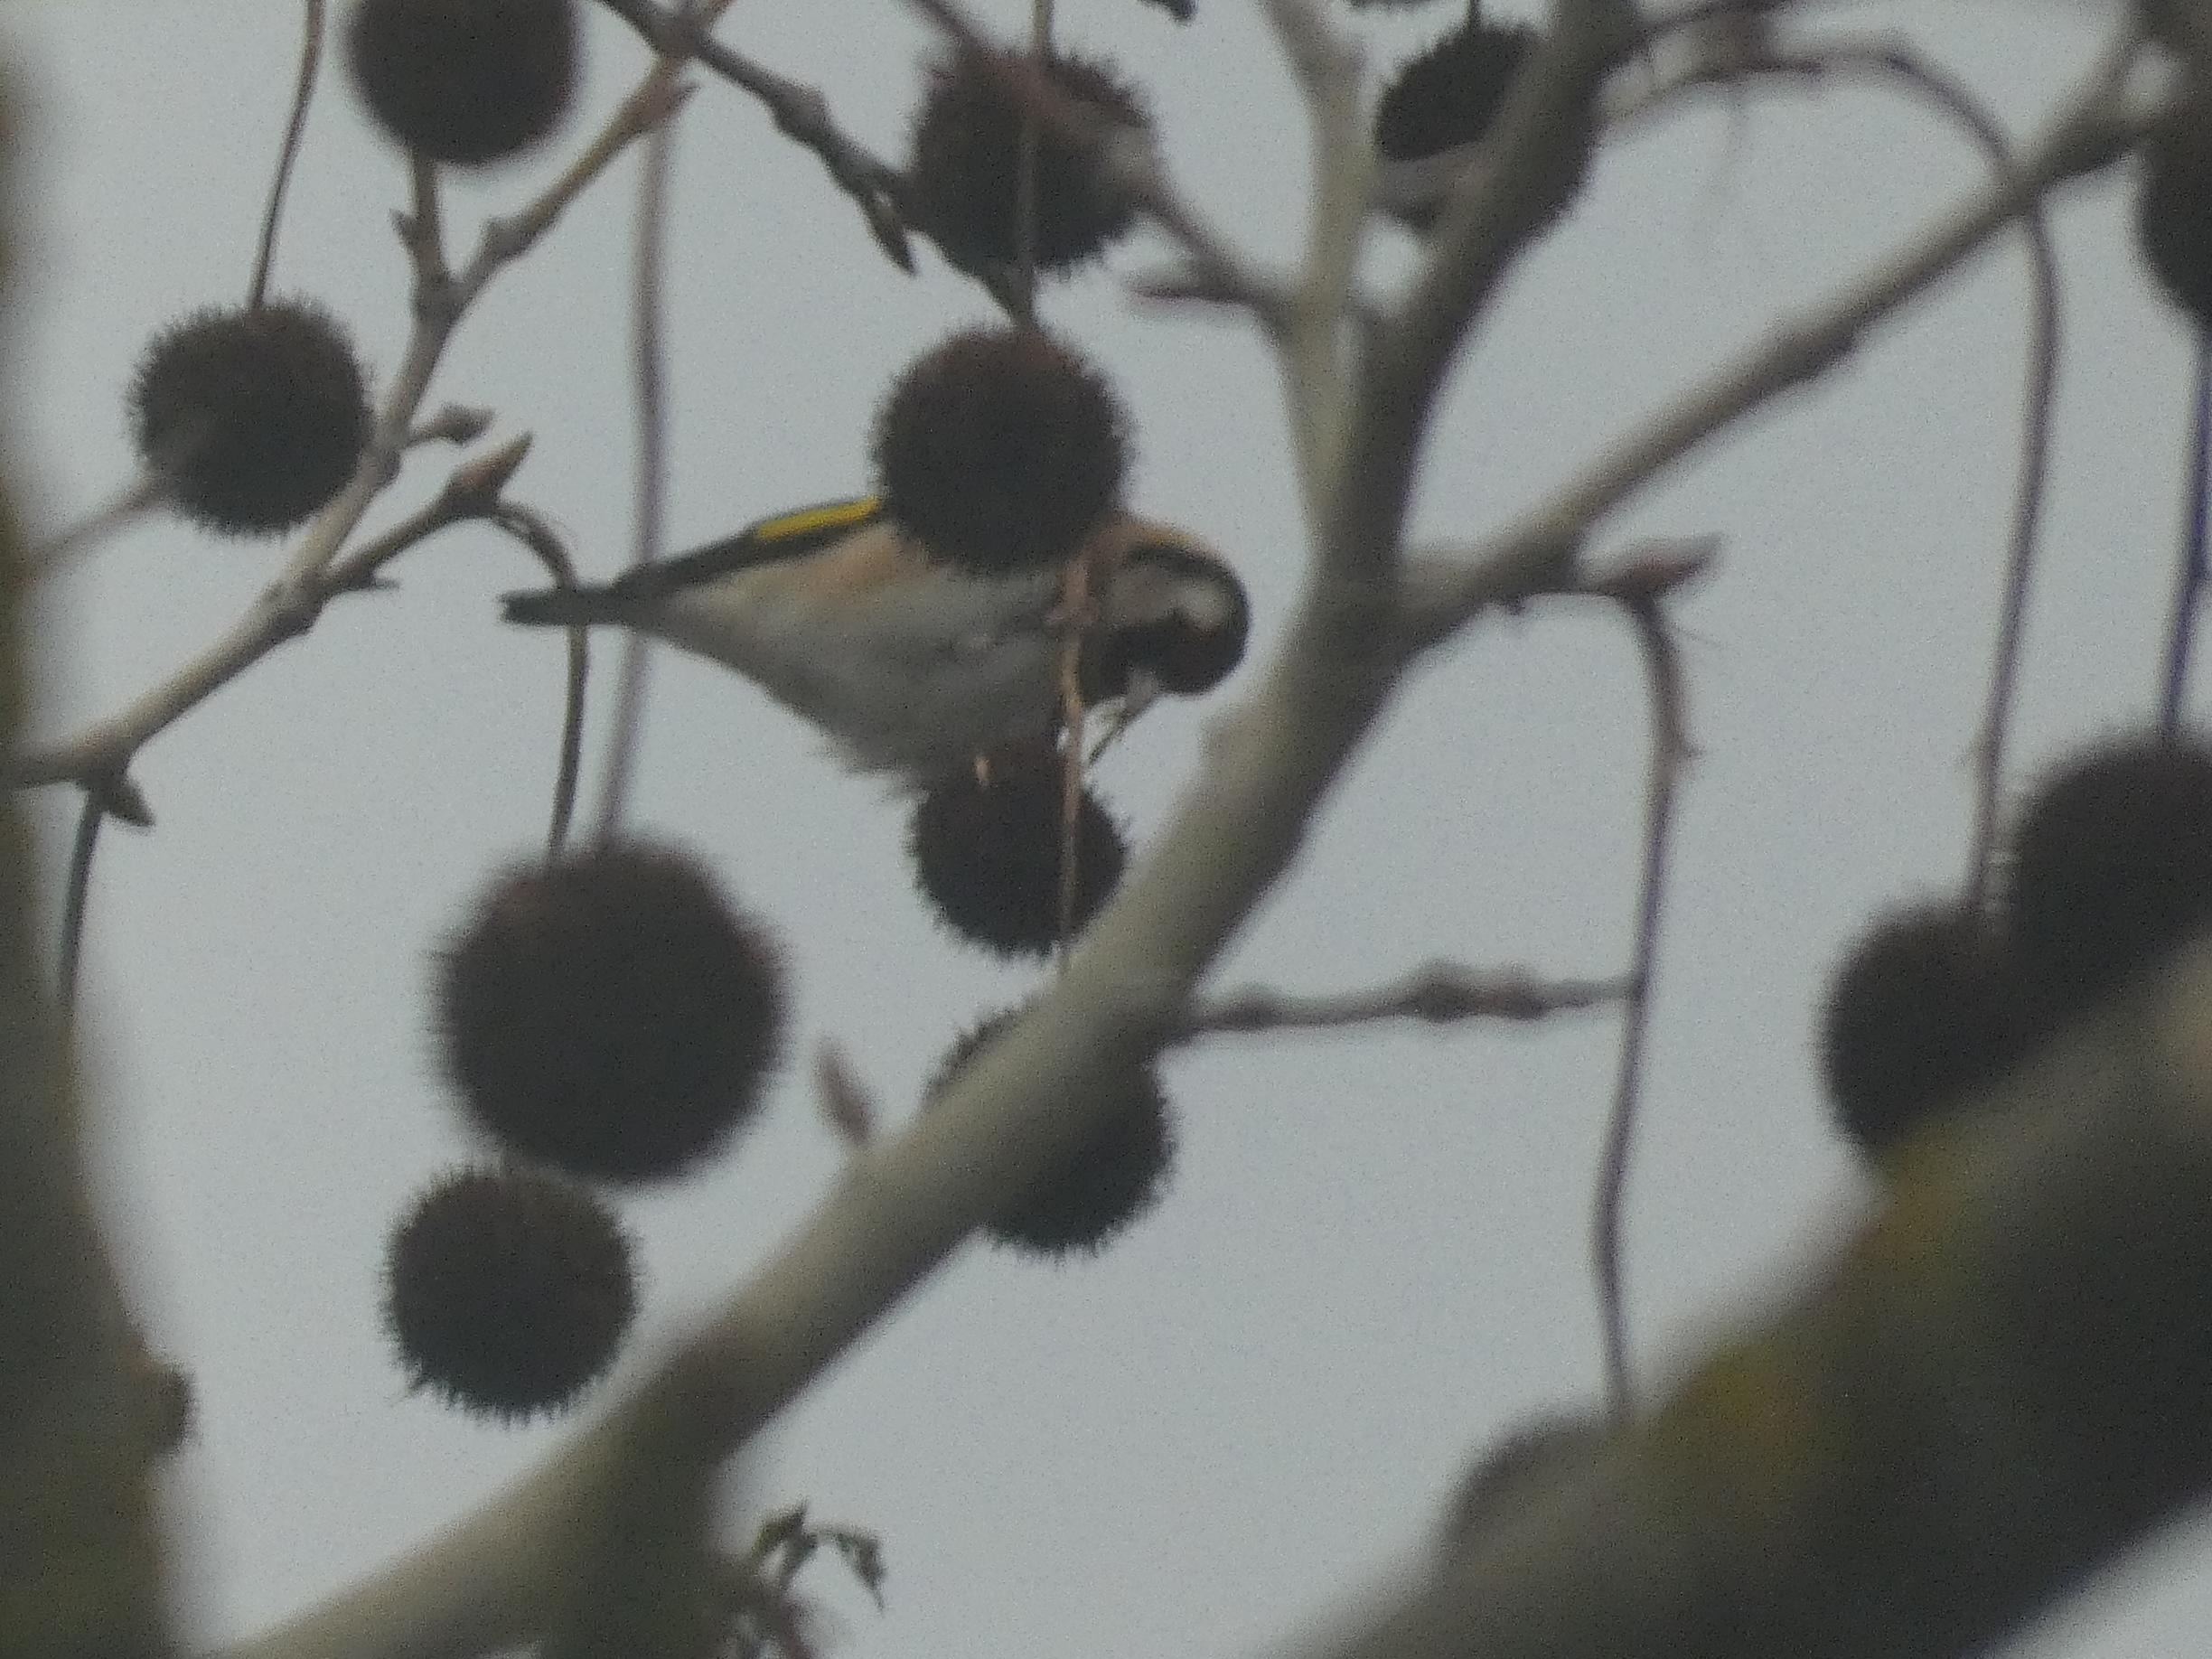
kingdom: Animalia
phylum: Chordata
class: Aves
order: Passeriformes
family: Fringillidae
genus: Carduelis
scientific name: Carduelis carduelis
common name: Stillits
